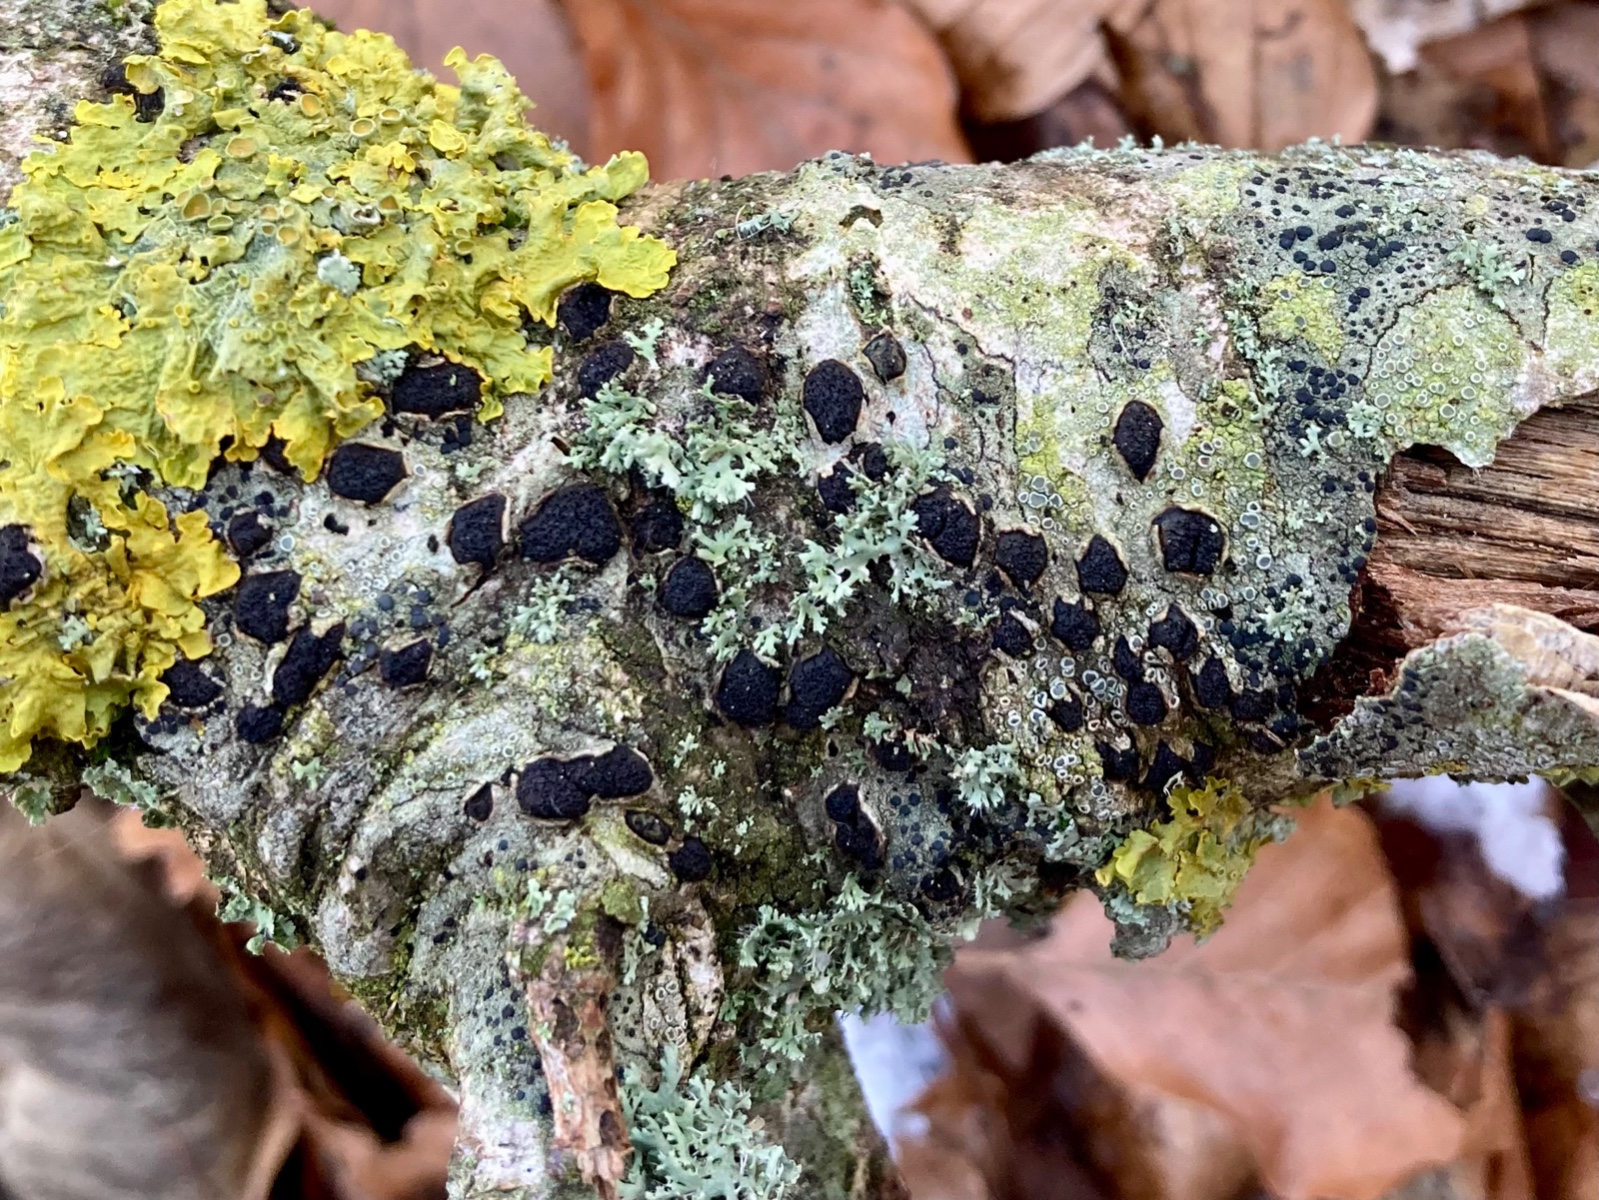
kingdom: Fungi
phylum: Ascomycota
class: Sordariomycetes
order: Xylariales
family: Diatrypaceae
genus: Diatrype
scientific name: Diatrype disciformis
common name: kant-kulskorpe
